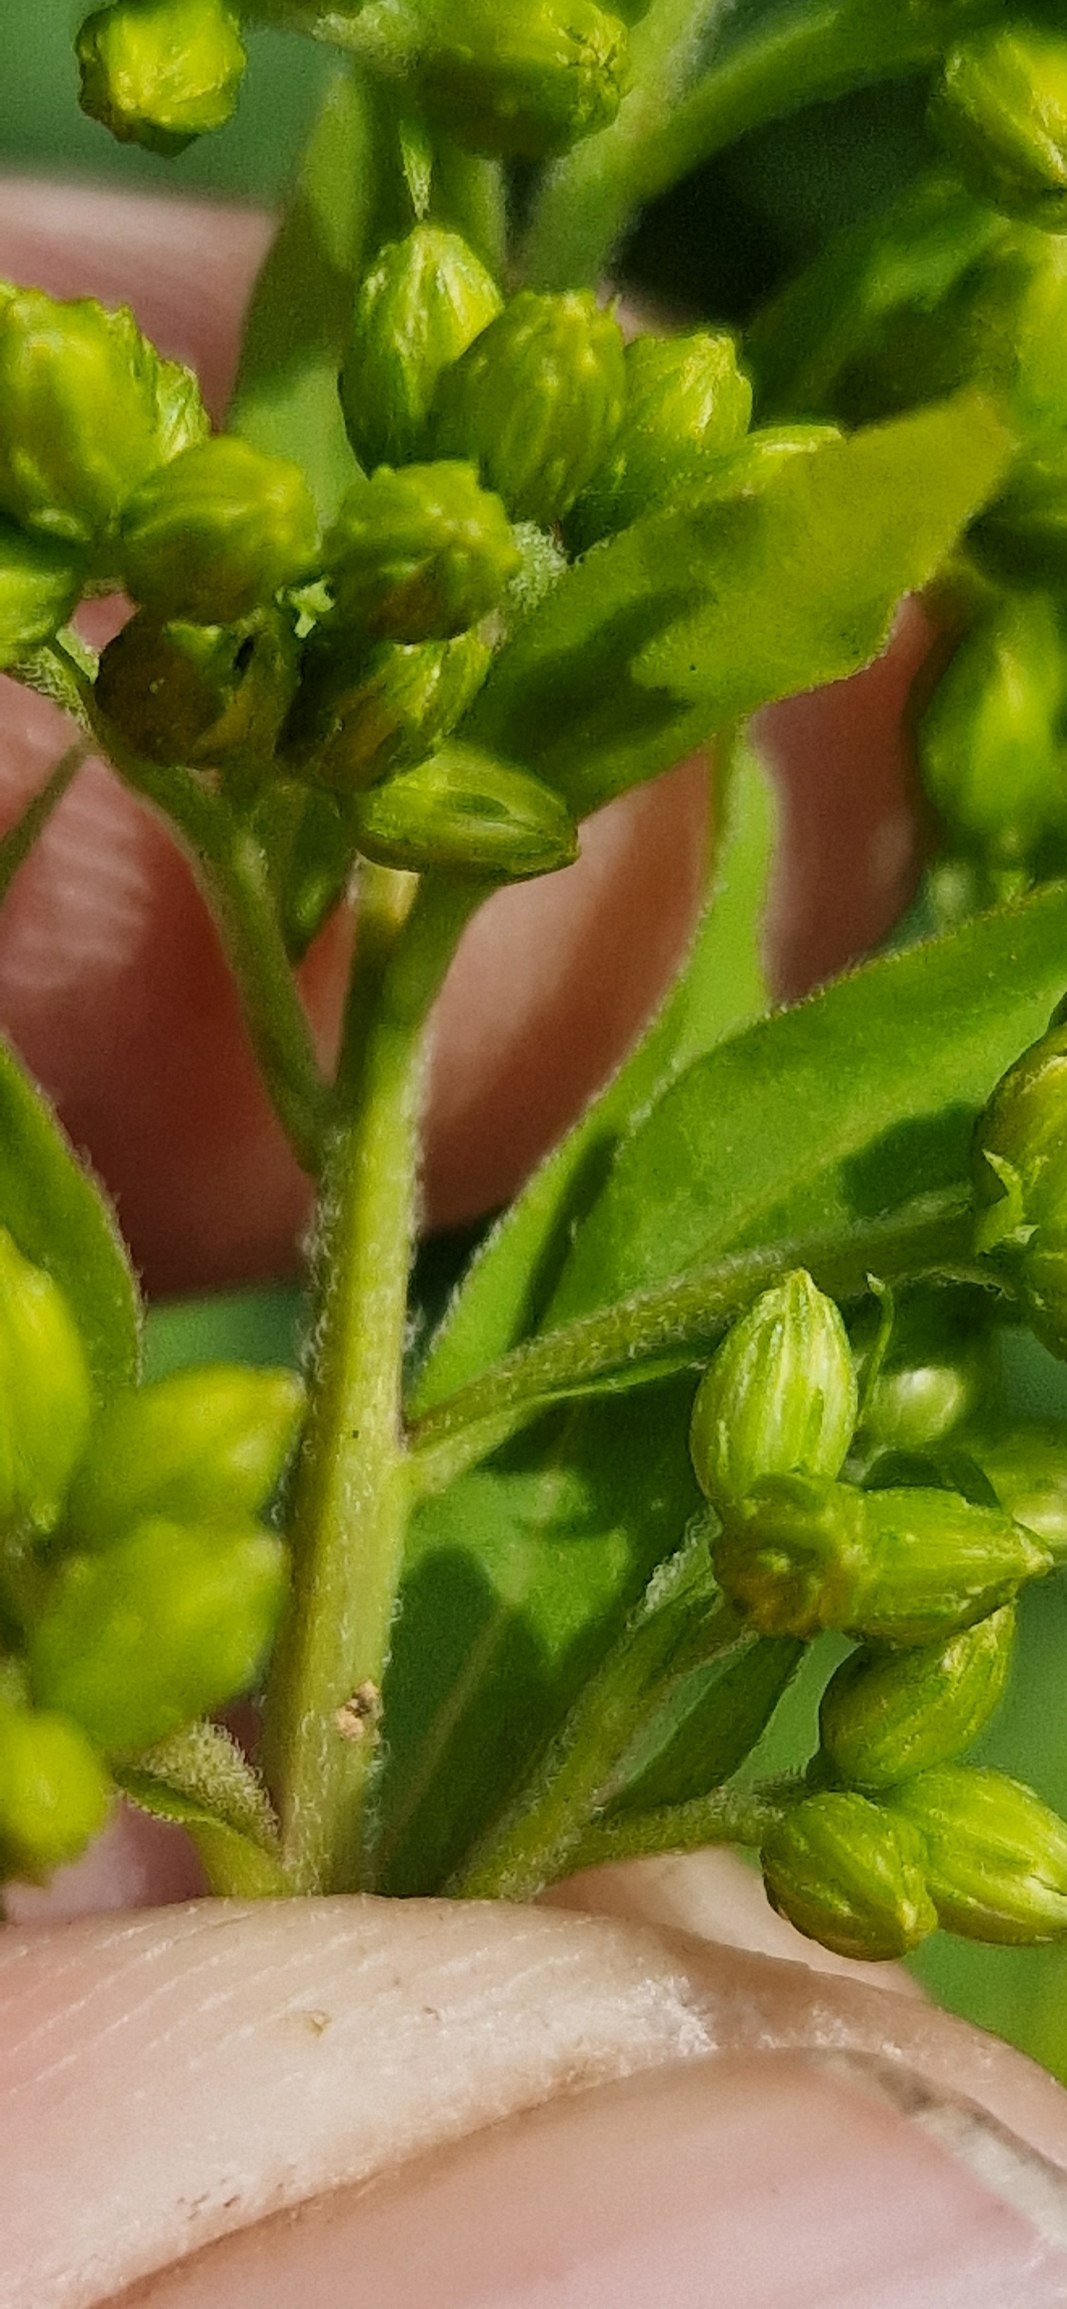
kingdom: Plantae
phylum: Tracheophyta
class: Magnoliopsida
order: Asterales
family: Asteraceae
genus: Solidago
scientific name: Solidago canadensis
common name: Kanadisk gyldenris
